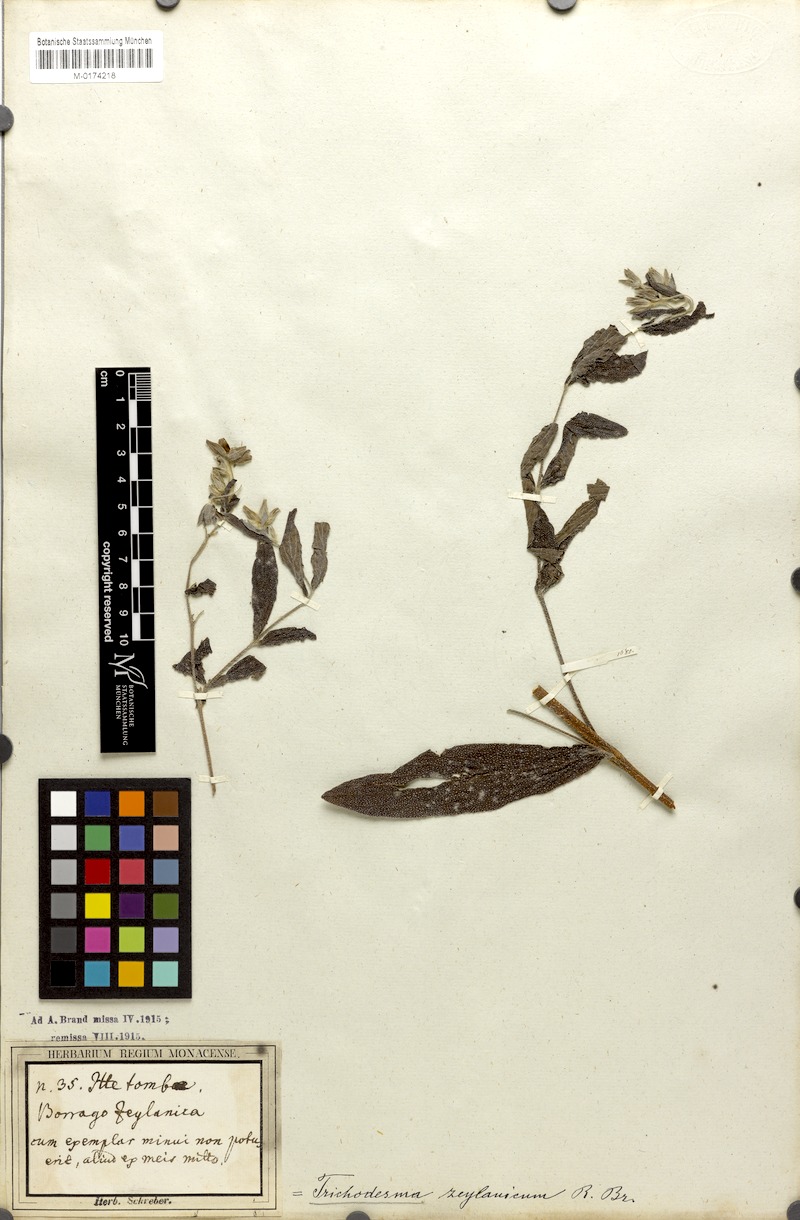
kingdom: Plantae
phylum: Tracheophyta
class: Magnoliopsida
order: Boraginales
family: Boraginaceae
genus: Trichodesma
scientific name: Trichodesma zeylanicum
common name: Camelbush
